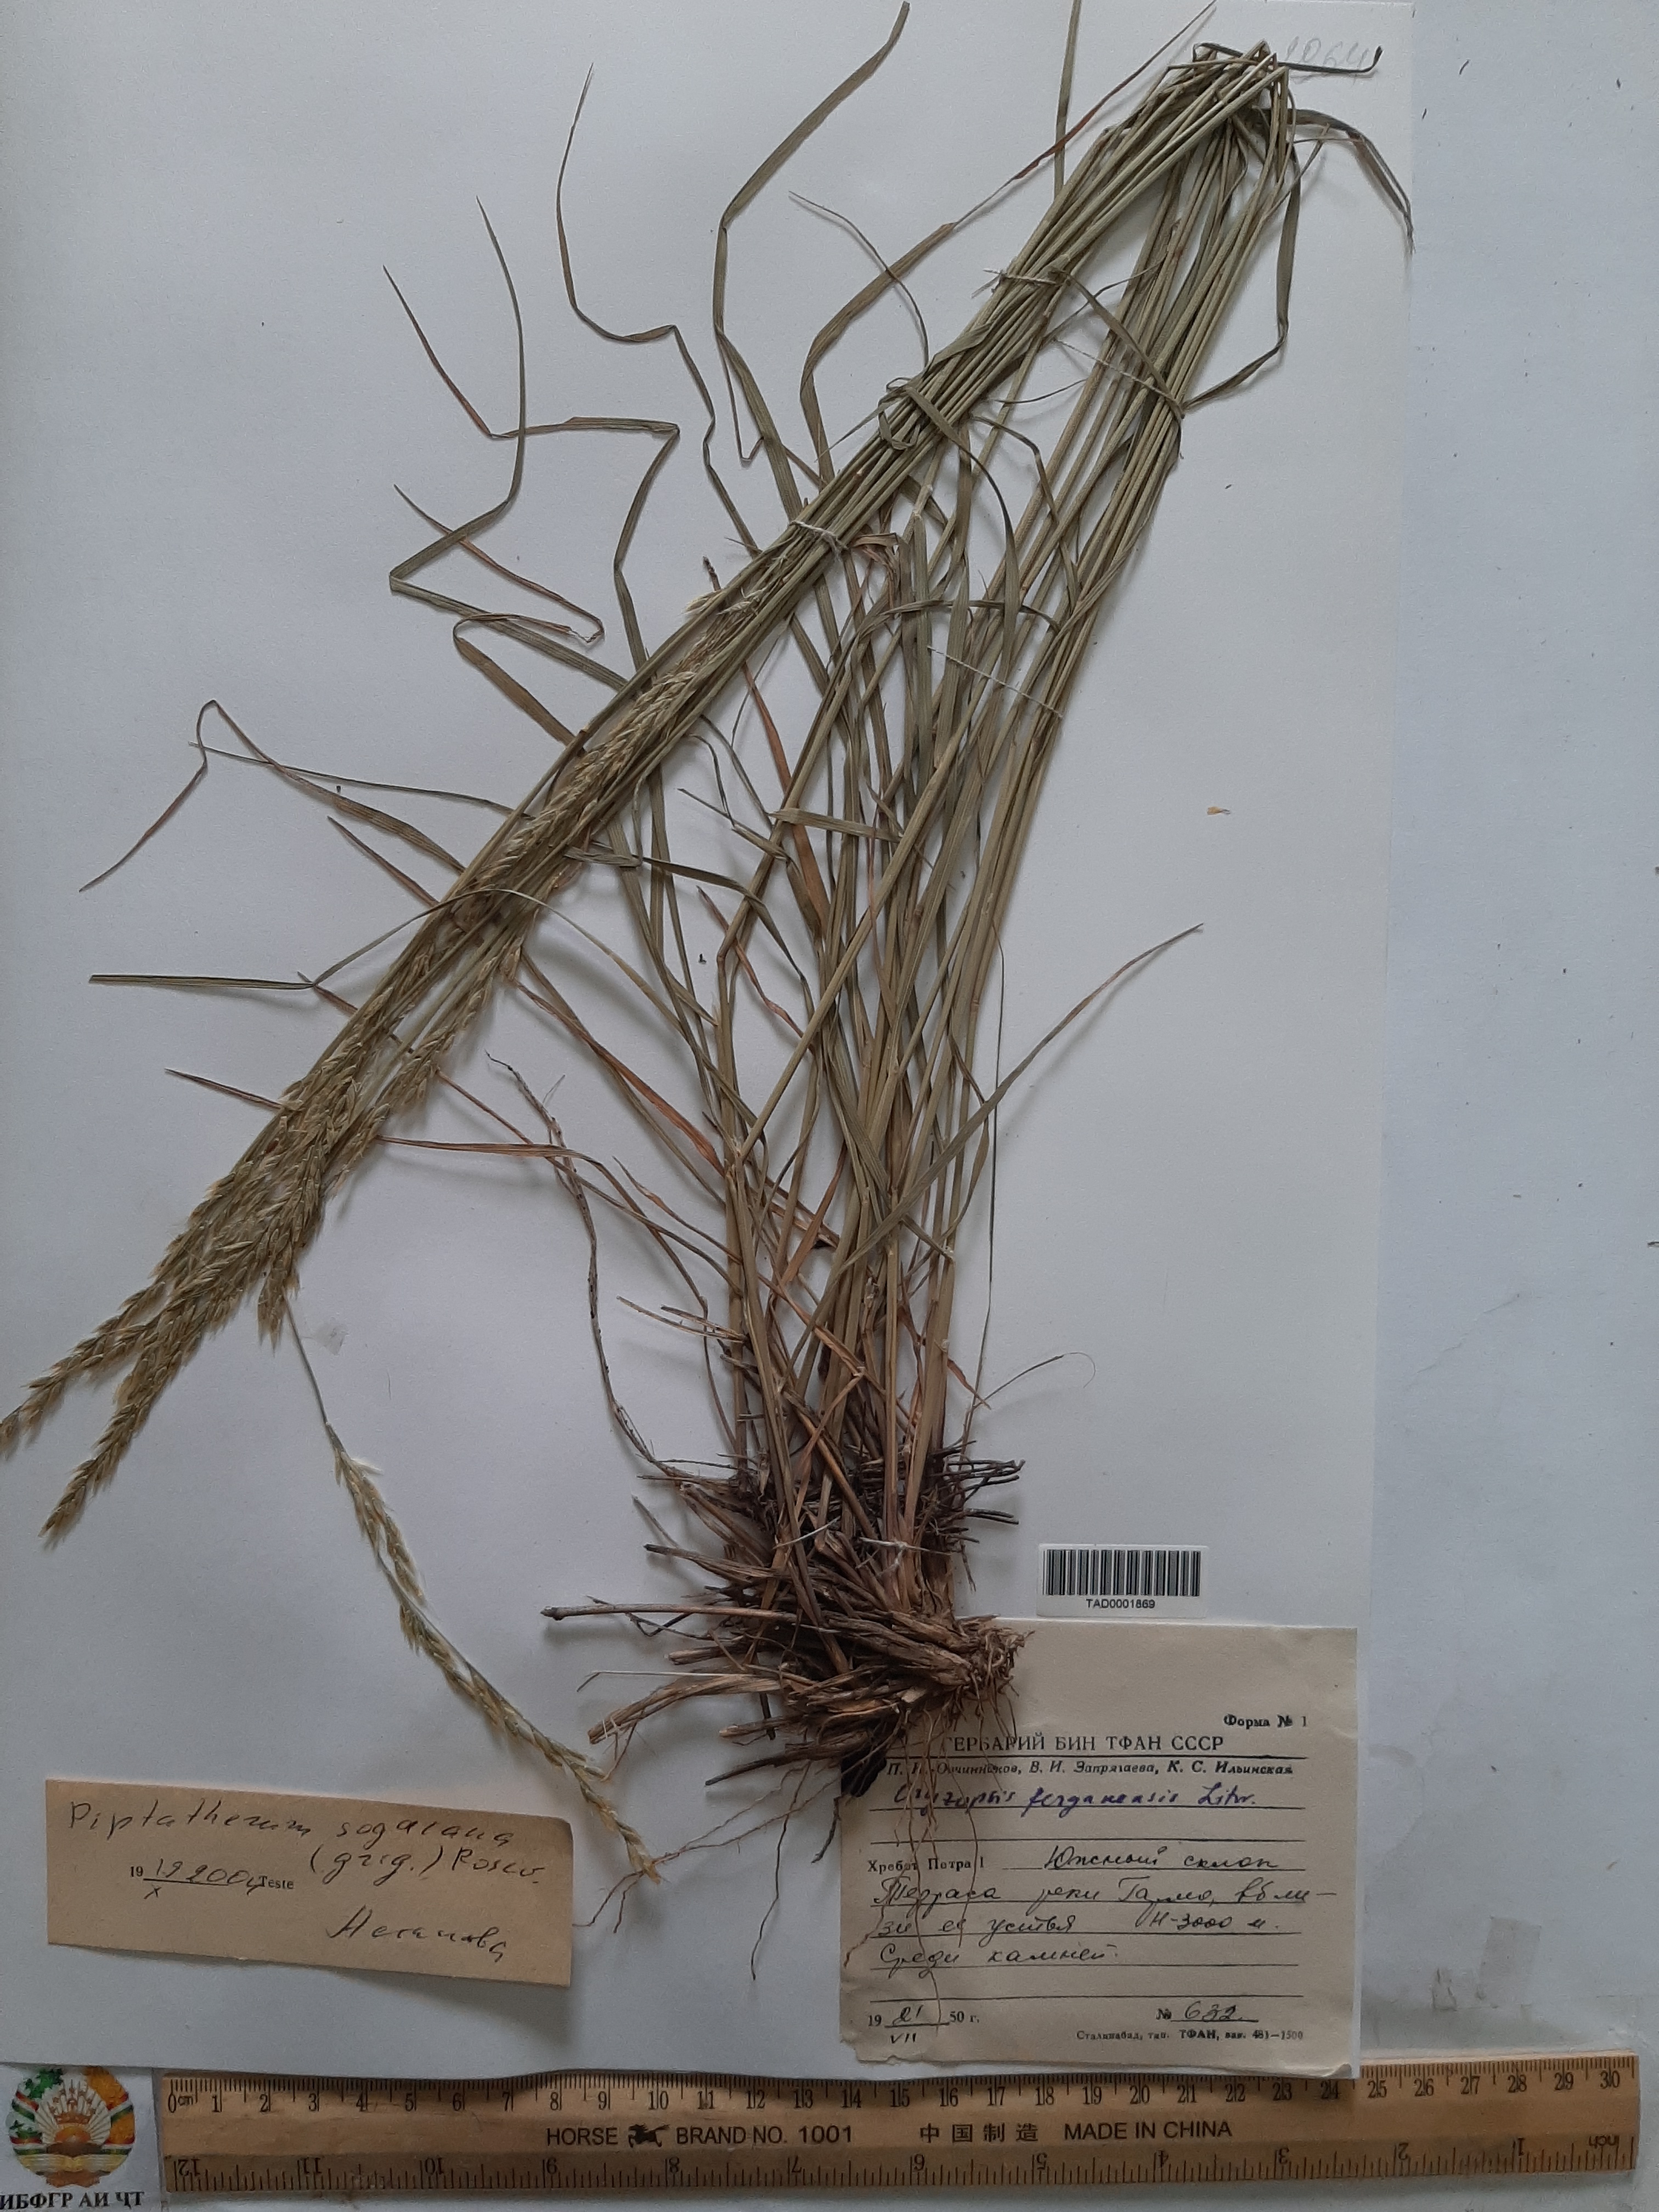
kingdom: Plantae
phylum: Tracheophyta
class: Liliopsida
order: Poales
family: Poaceae
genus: Piptatherum
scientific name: Piptatherum sogdianum
